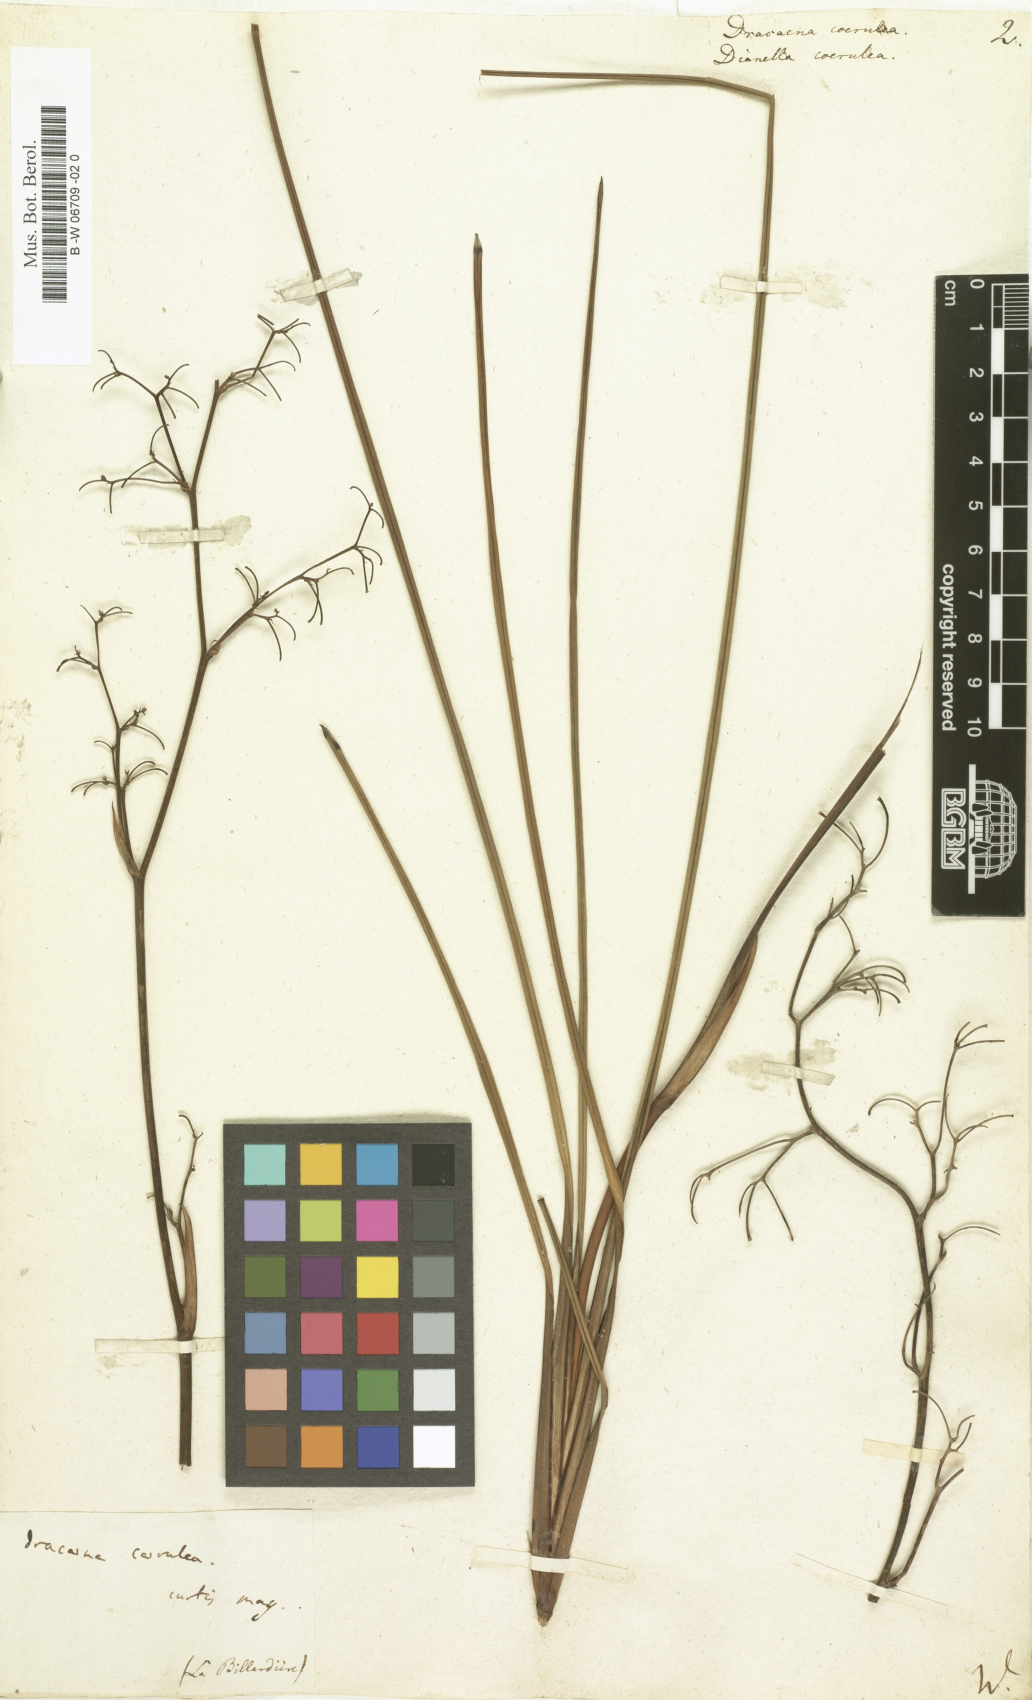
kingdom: Plantae
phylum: Tracheophyta
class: Liliopsida
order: Asparagales
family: Asparagaceae
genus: Dracaena
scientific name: Dracaena
